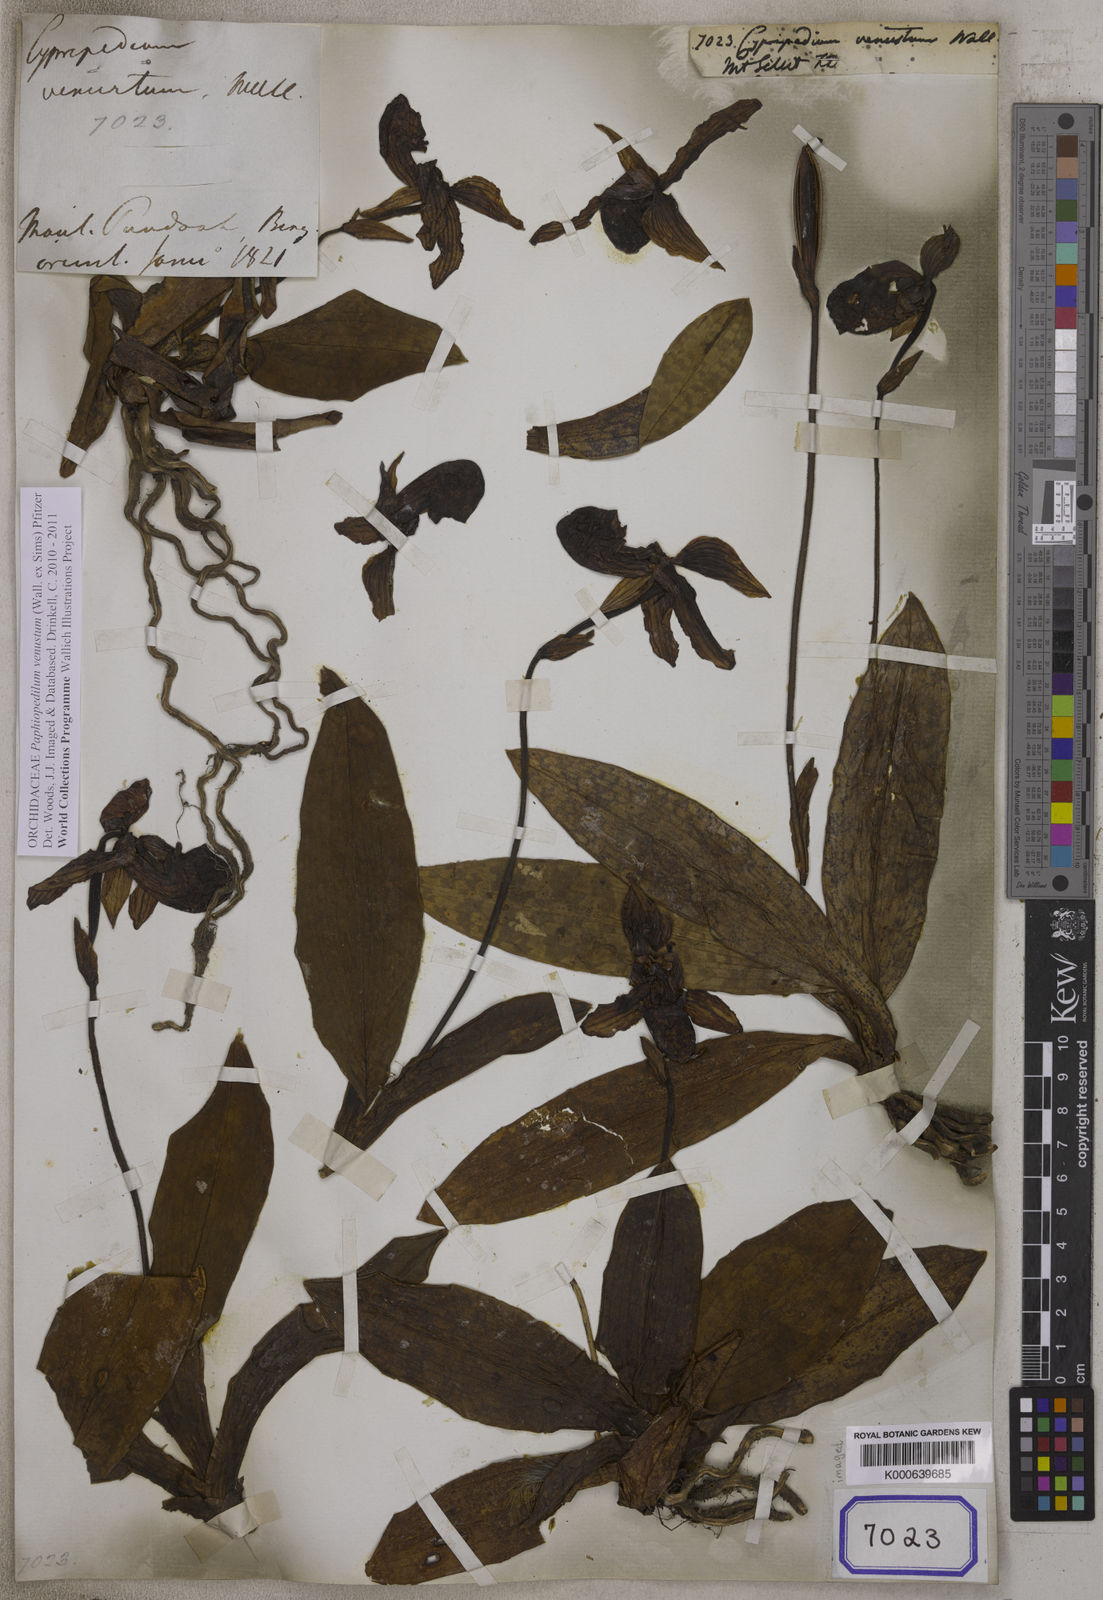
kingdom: Plantae
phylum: Tracheophyta
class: Liliopsida
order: Asparagales
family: Orchidaceae
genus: Cypripedium
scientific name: Cypripedium
